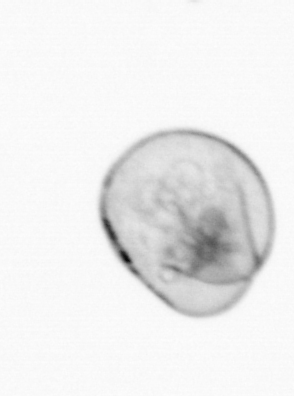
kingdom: Chromista
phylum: Myzozoa
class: Dinophyceae
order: Noctilucales
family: Noctilucaceae
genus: Noctiluca
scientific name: Noctiluca scintillans
